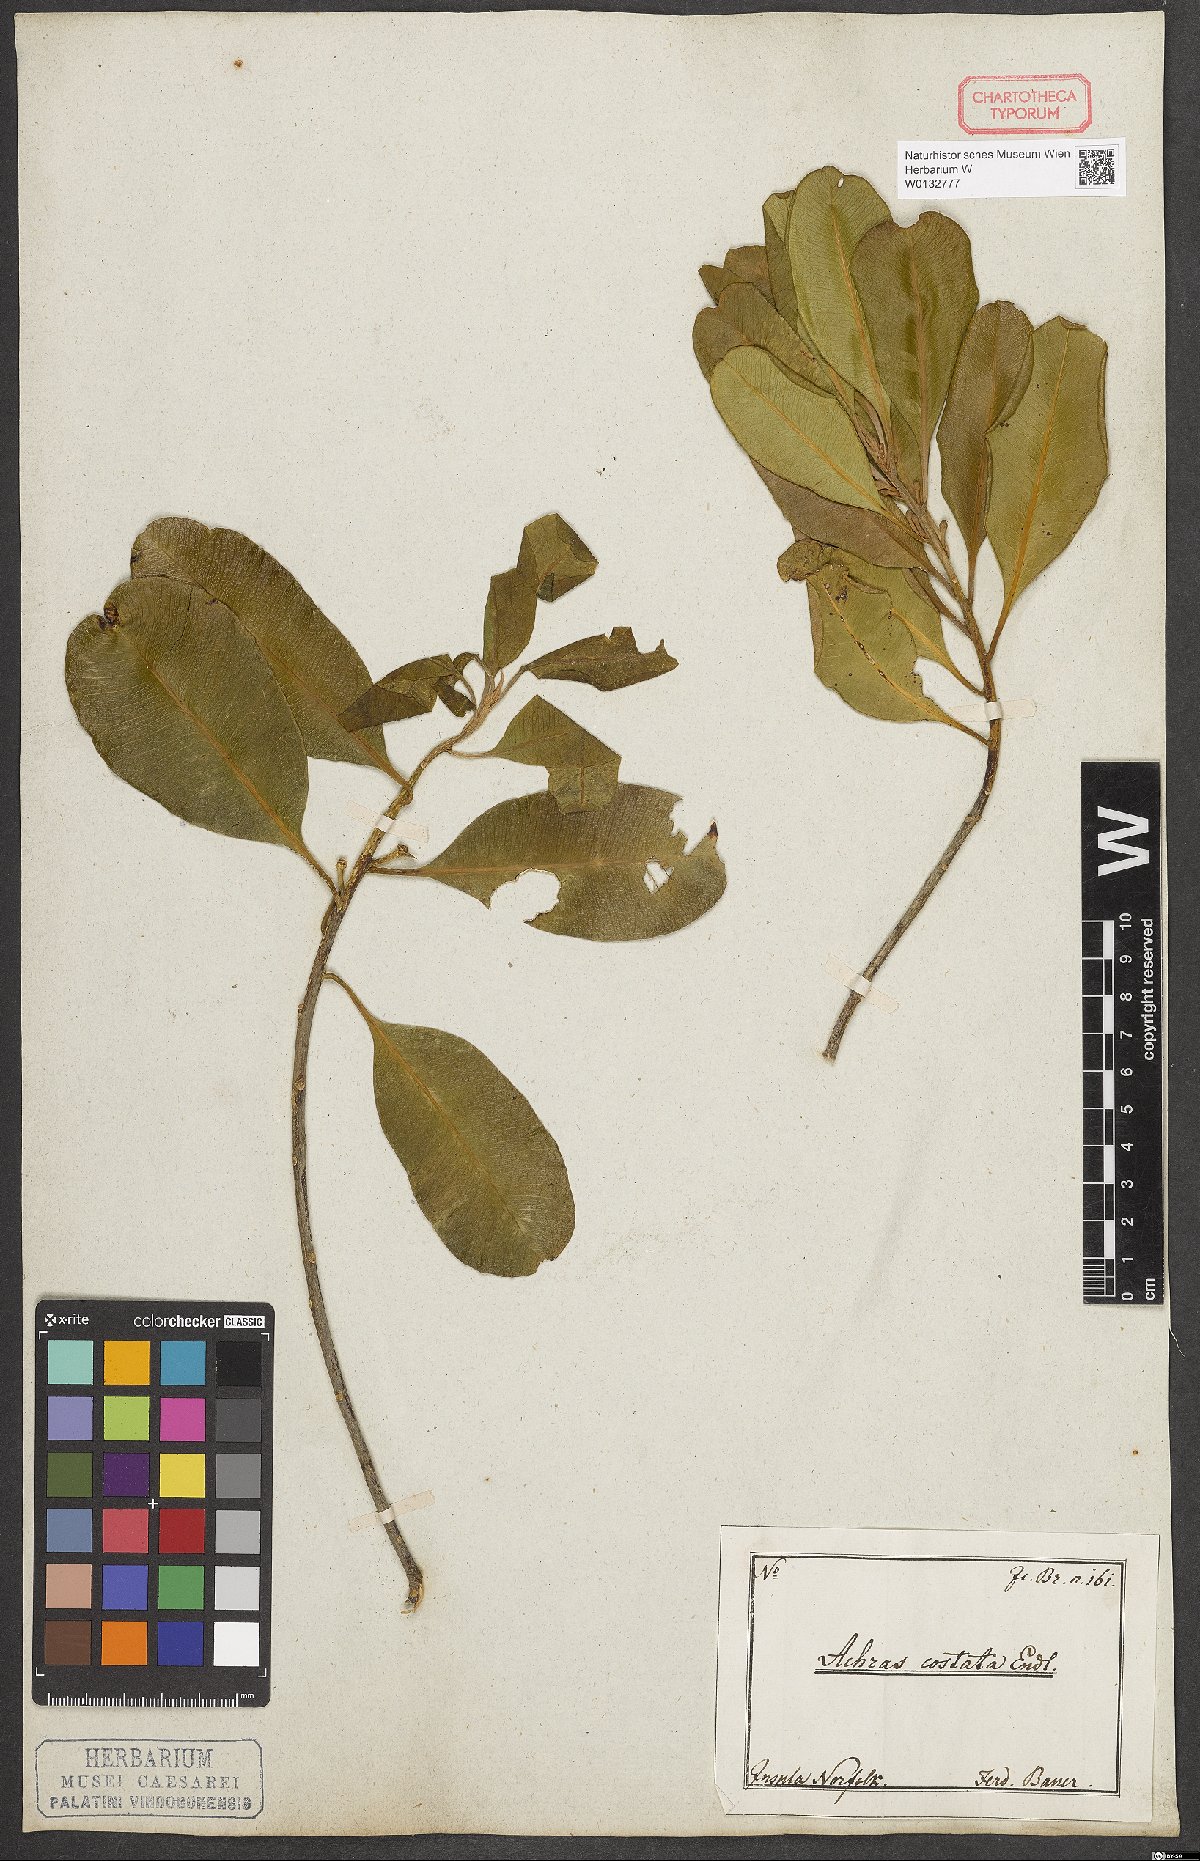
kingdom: Plantae
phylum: Tracheophyta
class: Magnoliopsida
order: Ericales
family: Sapotaceae
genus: Planchonella
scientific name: Planchonella costata
